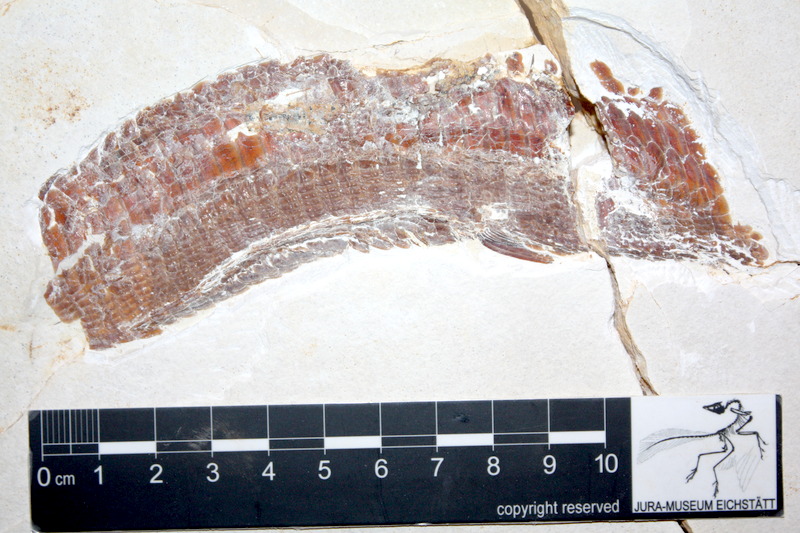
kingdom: Animalia
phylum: Chordata
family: Aspidorhynchidae
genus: Aspidorhynchus
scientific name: Aspidorhynchus sanzenbacheri
